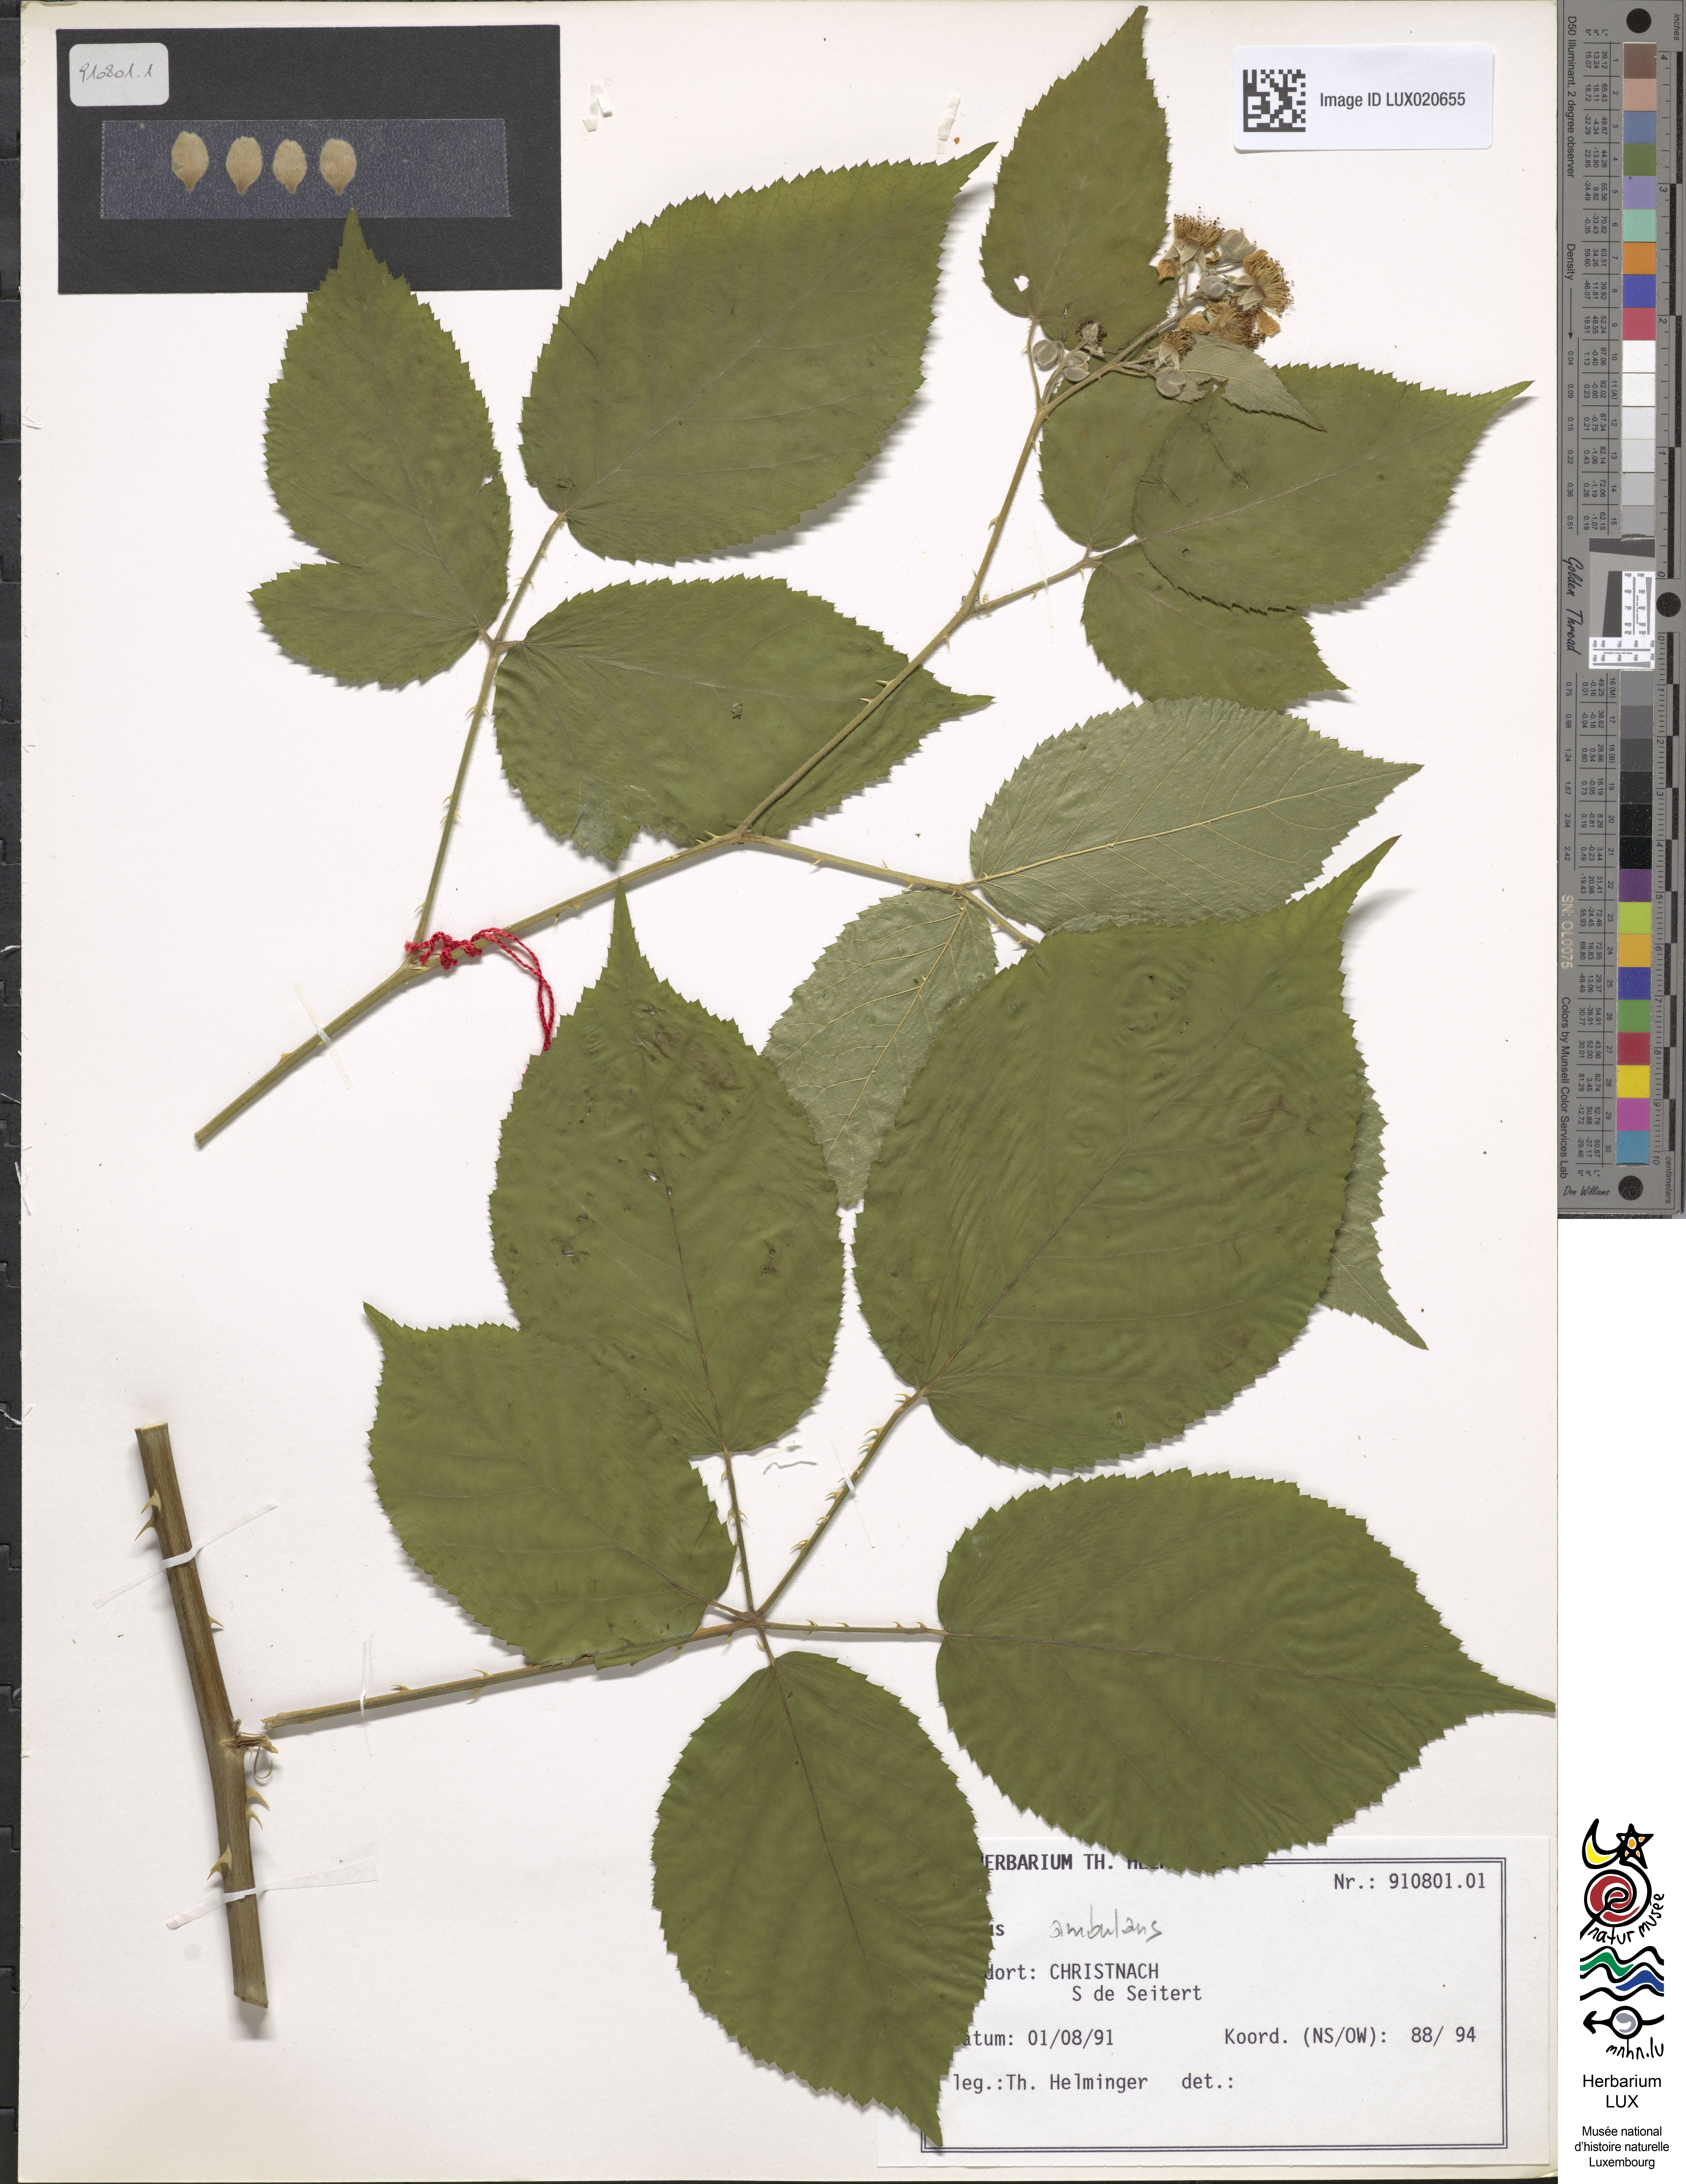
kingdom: Plantae
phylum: Tracheophyta
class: Magnoliopsida
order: Rosales
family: Rosaceae
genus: Rubus
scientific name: Rubus gremlii
